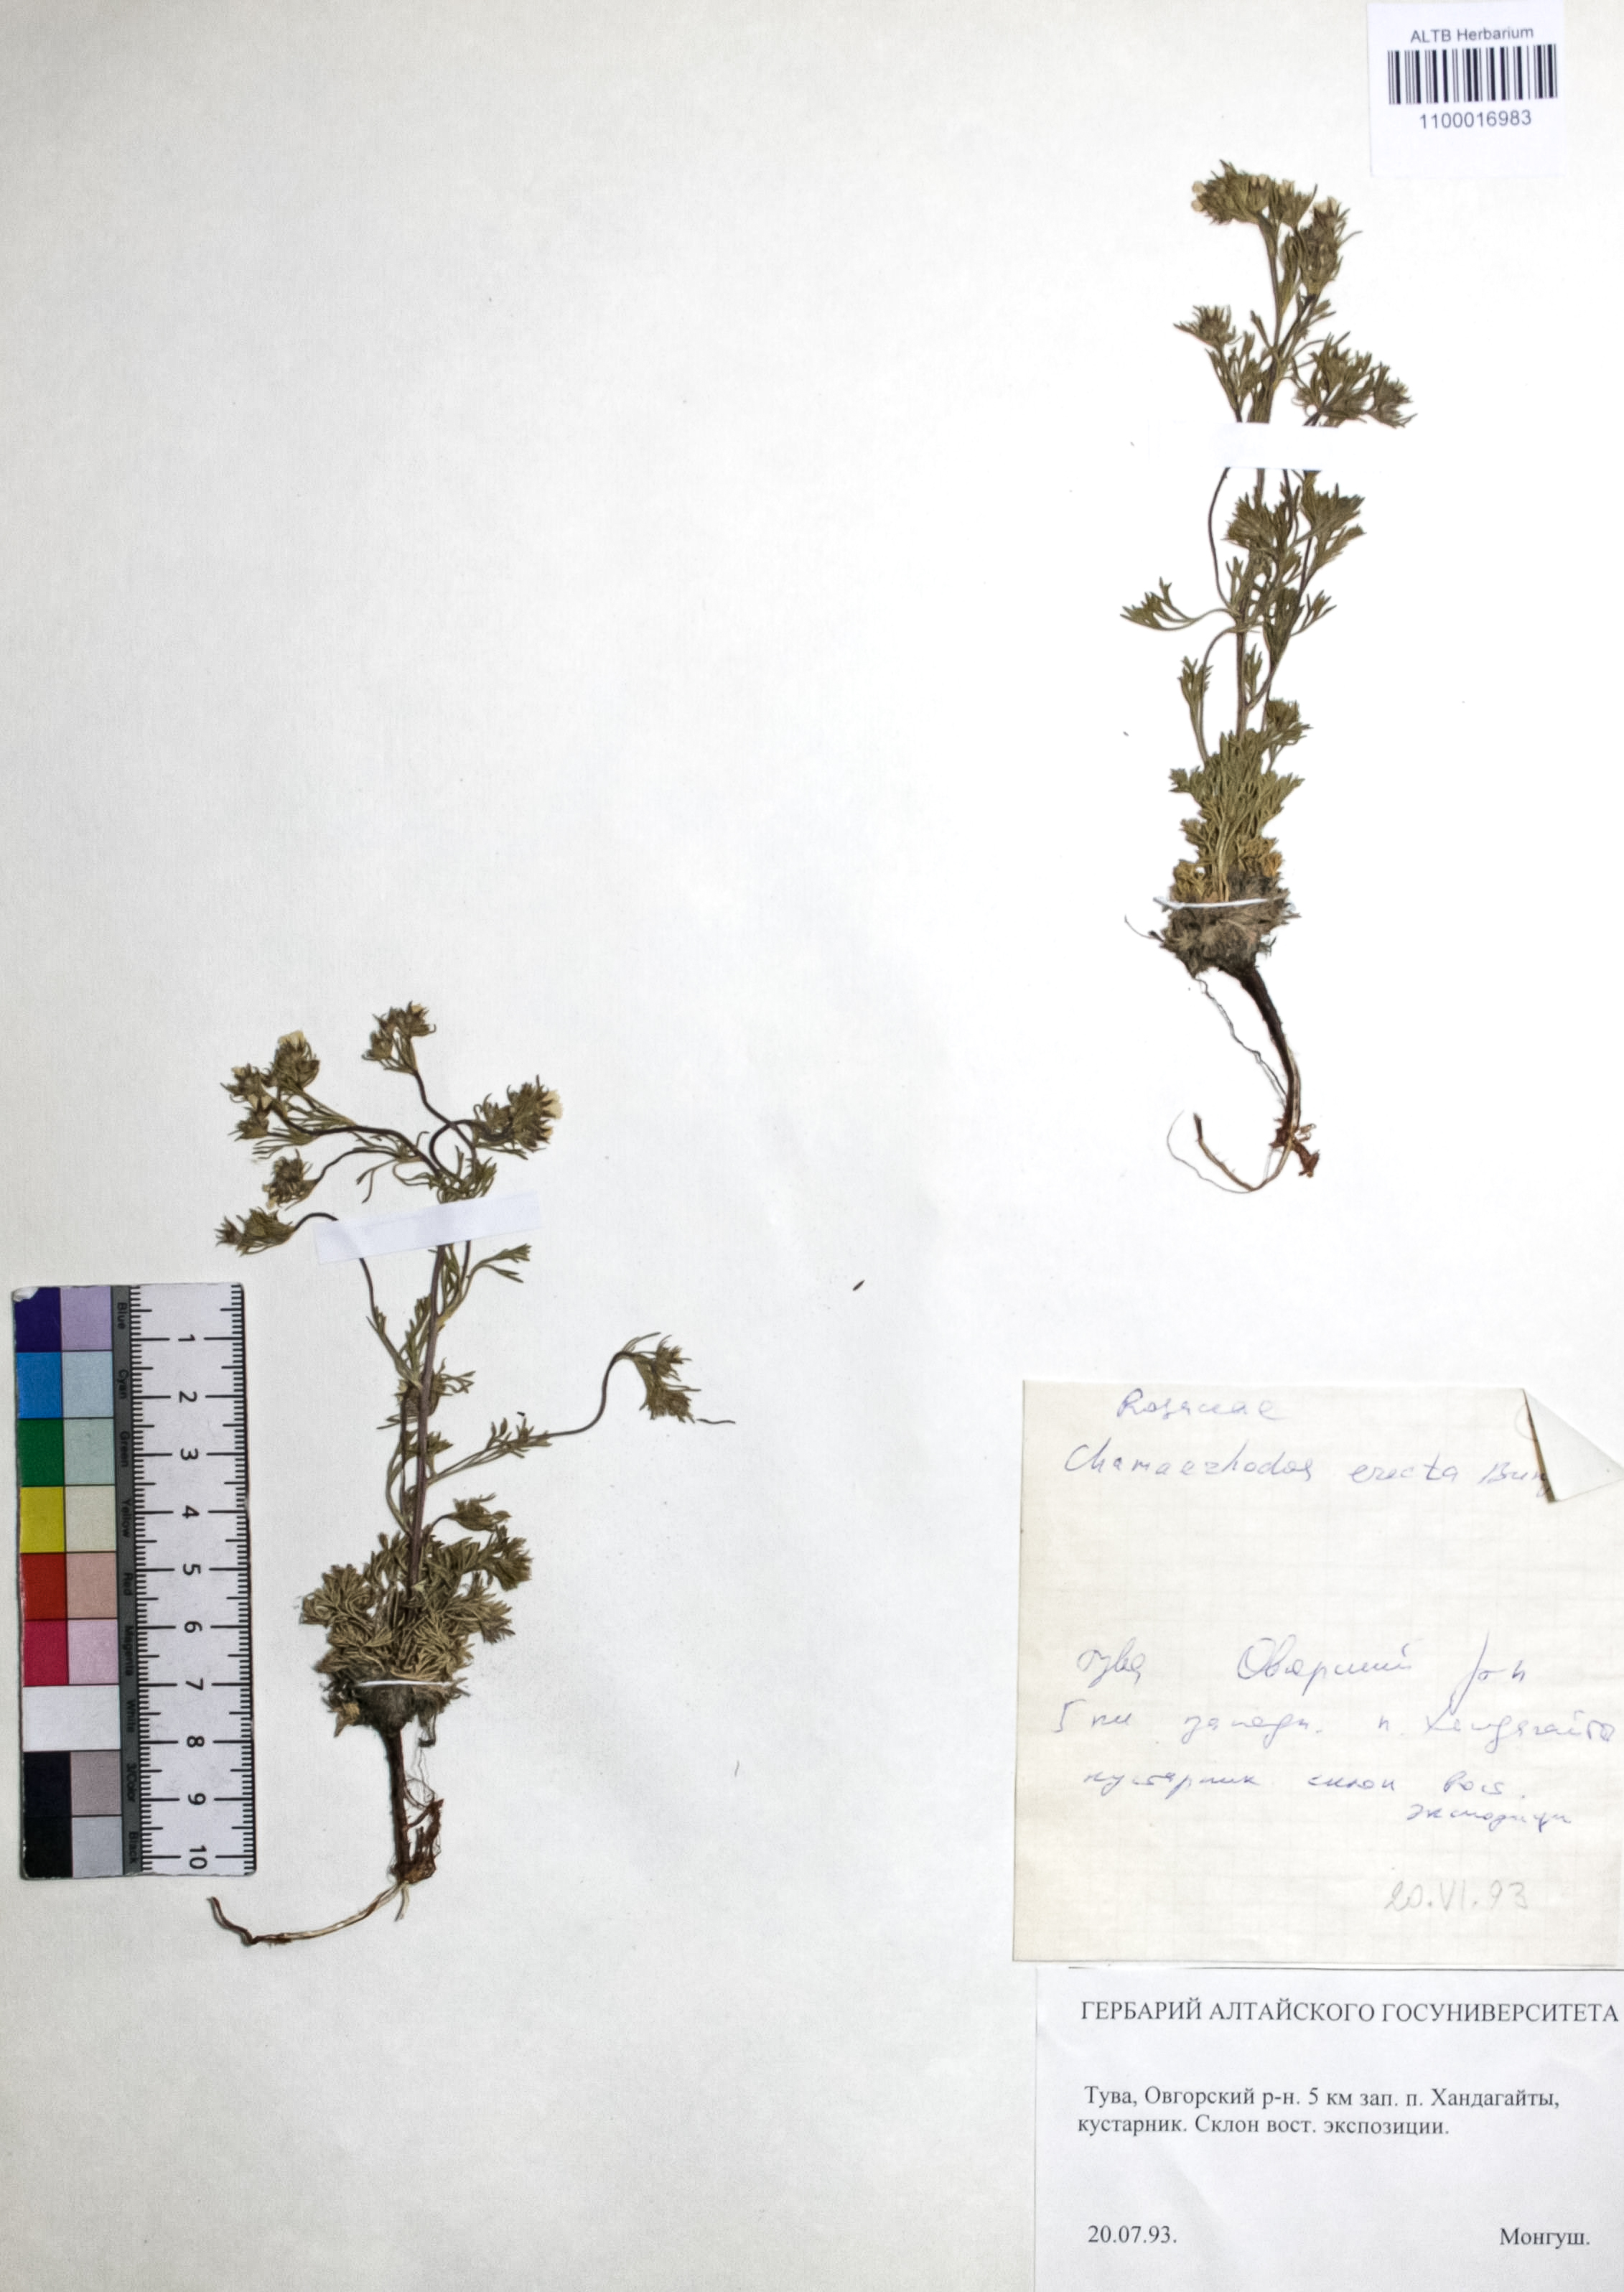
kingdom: Plantae
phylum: Tracheophyta
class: Magnoliopsida
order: Rosales
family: Rosaceae
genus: Chamaerhodos
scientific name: Chamaerhodos erecta
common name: American chamaerhodos
